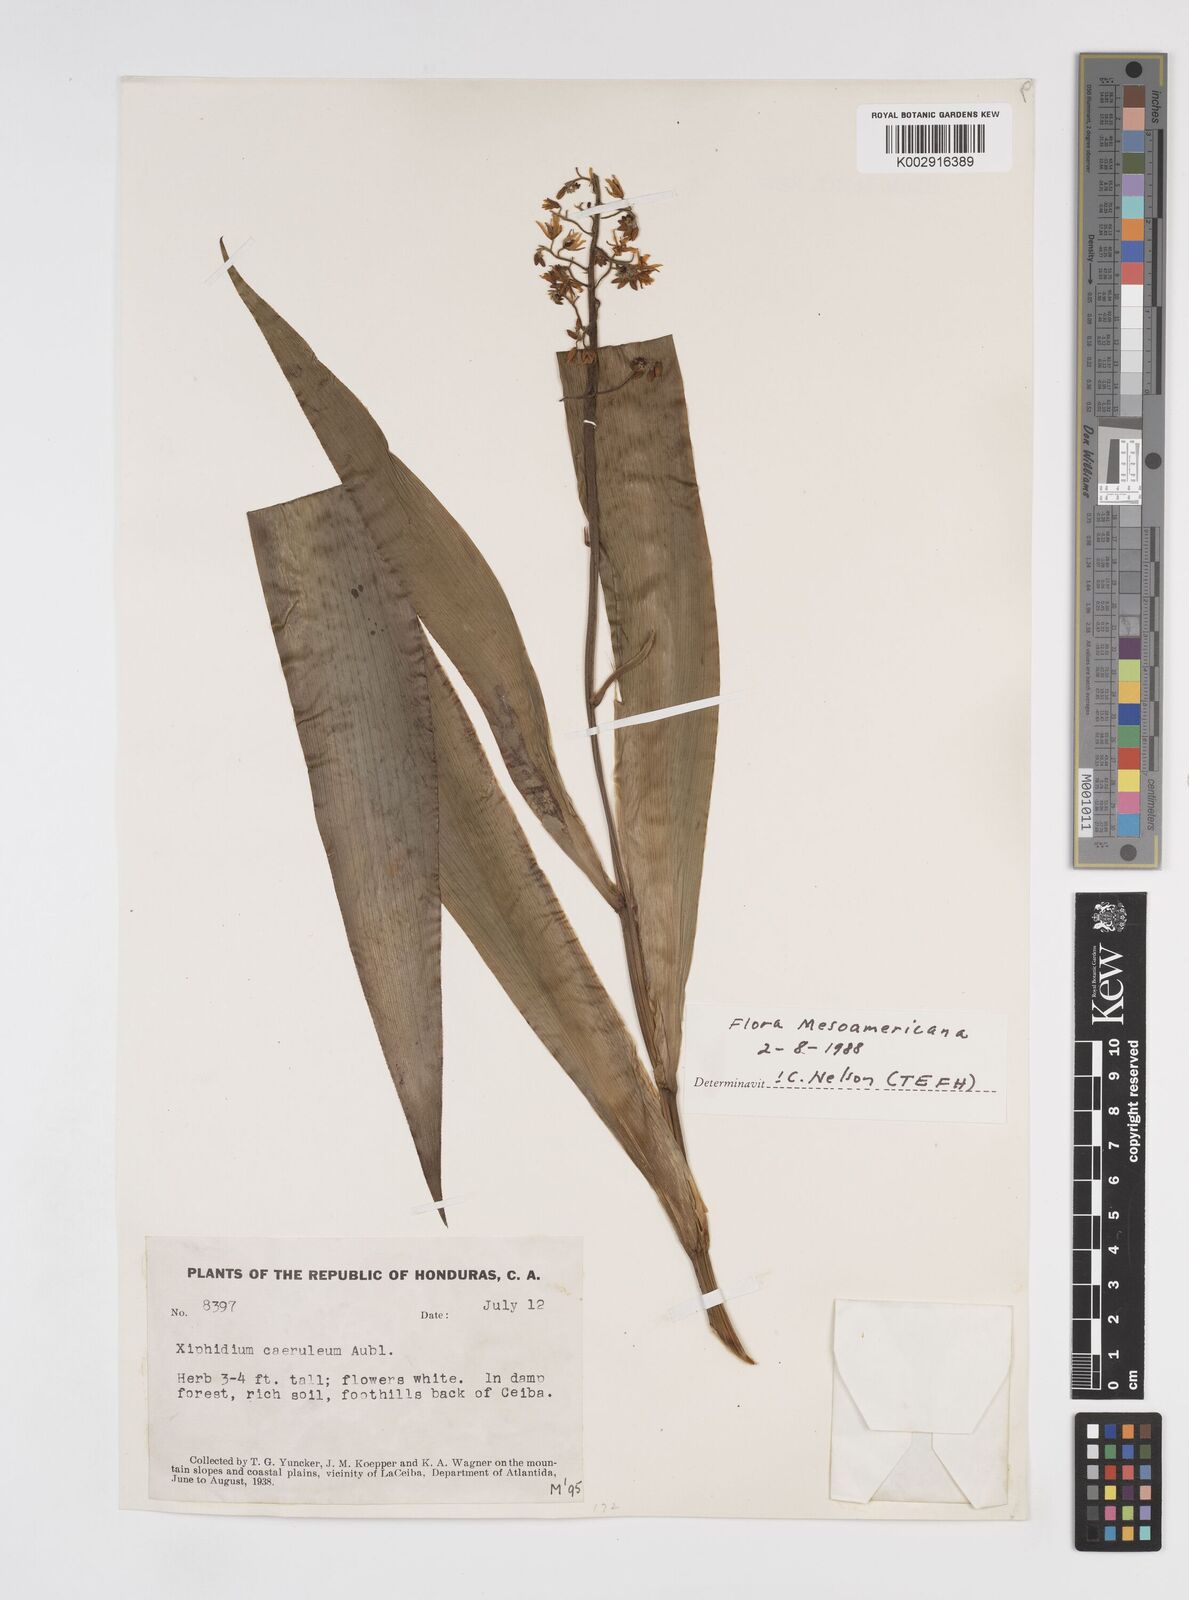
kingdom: Plantae
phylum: Tracheophyta
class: Liliopsida
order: Commelinales
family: Haemodoraceae
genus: Xiphidium
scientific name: Xiphidium caeruleum
